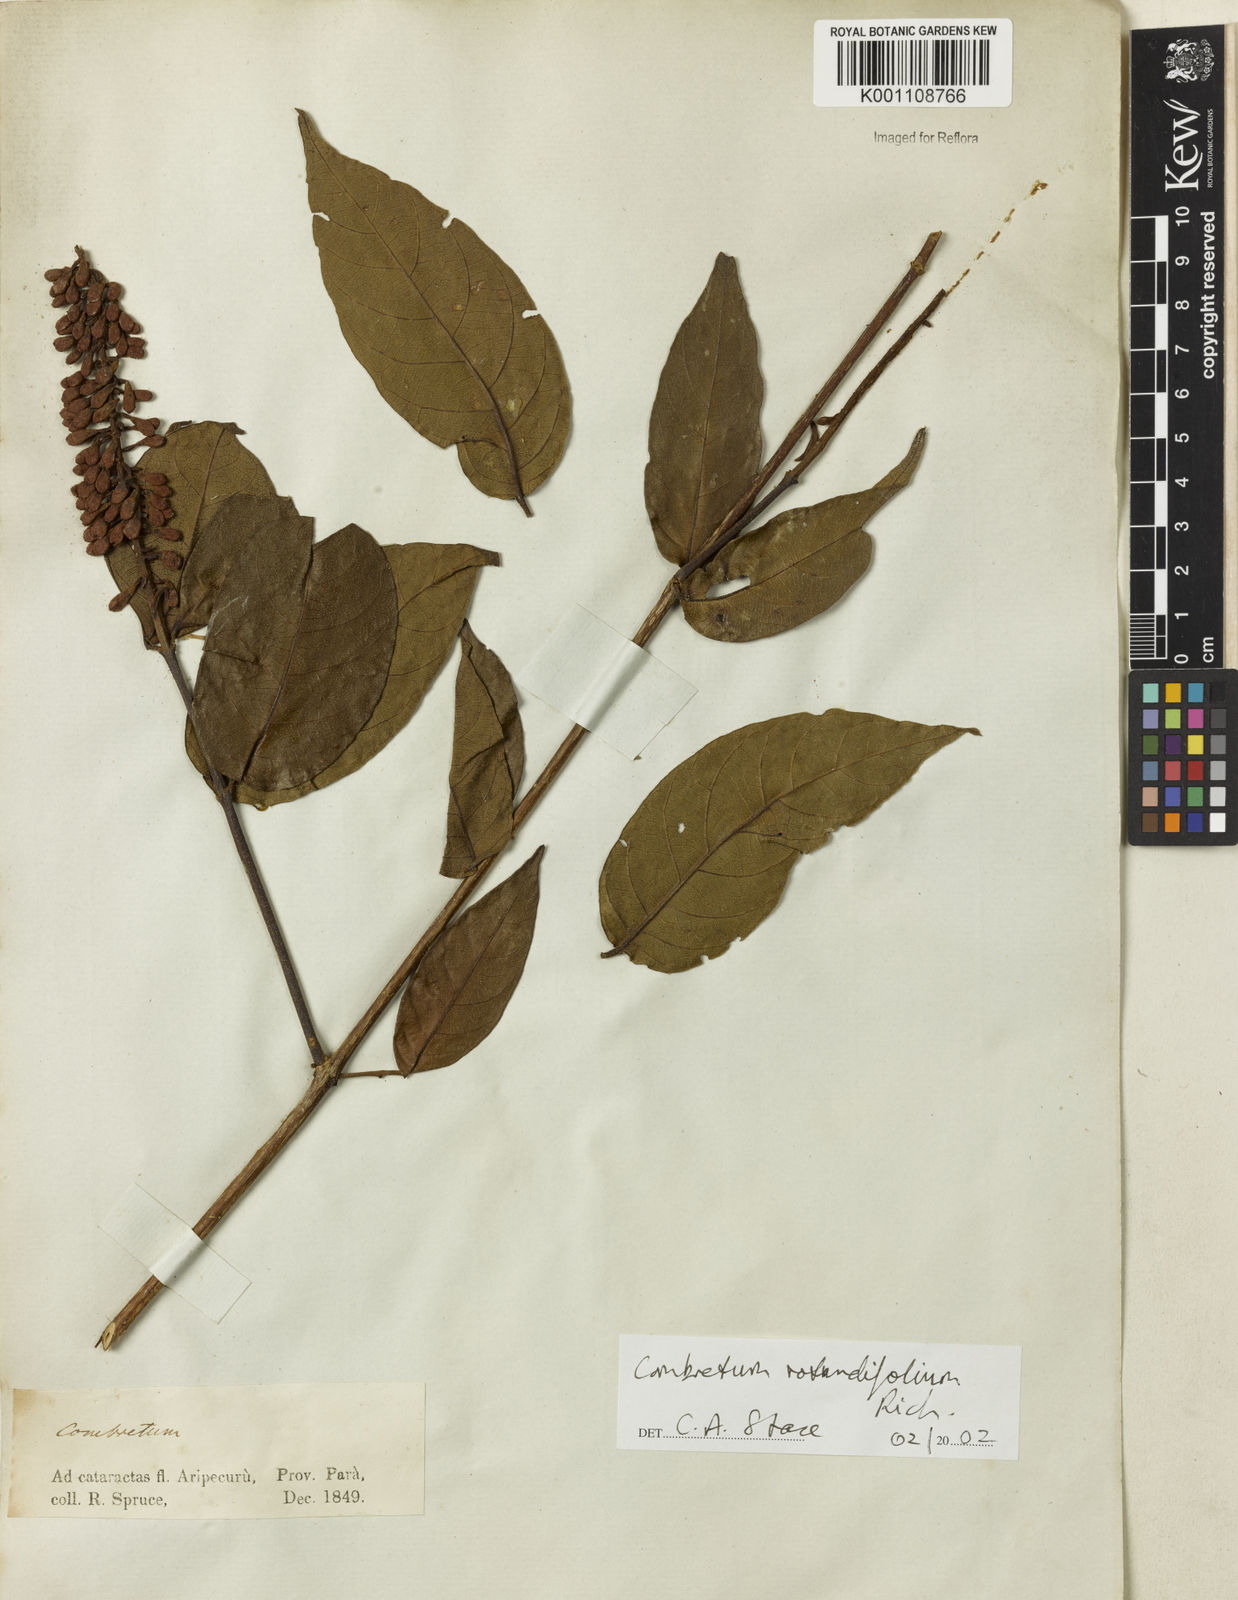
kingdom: Plantae
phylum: Tracheophyta
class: Magnoliopsida
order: Myrtales
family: Combretaceae
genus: Combretum
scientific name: Combretum rotundifolium
